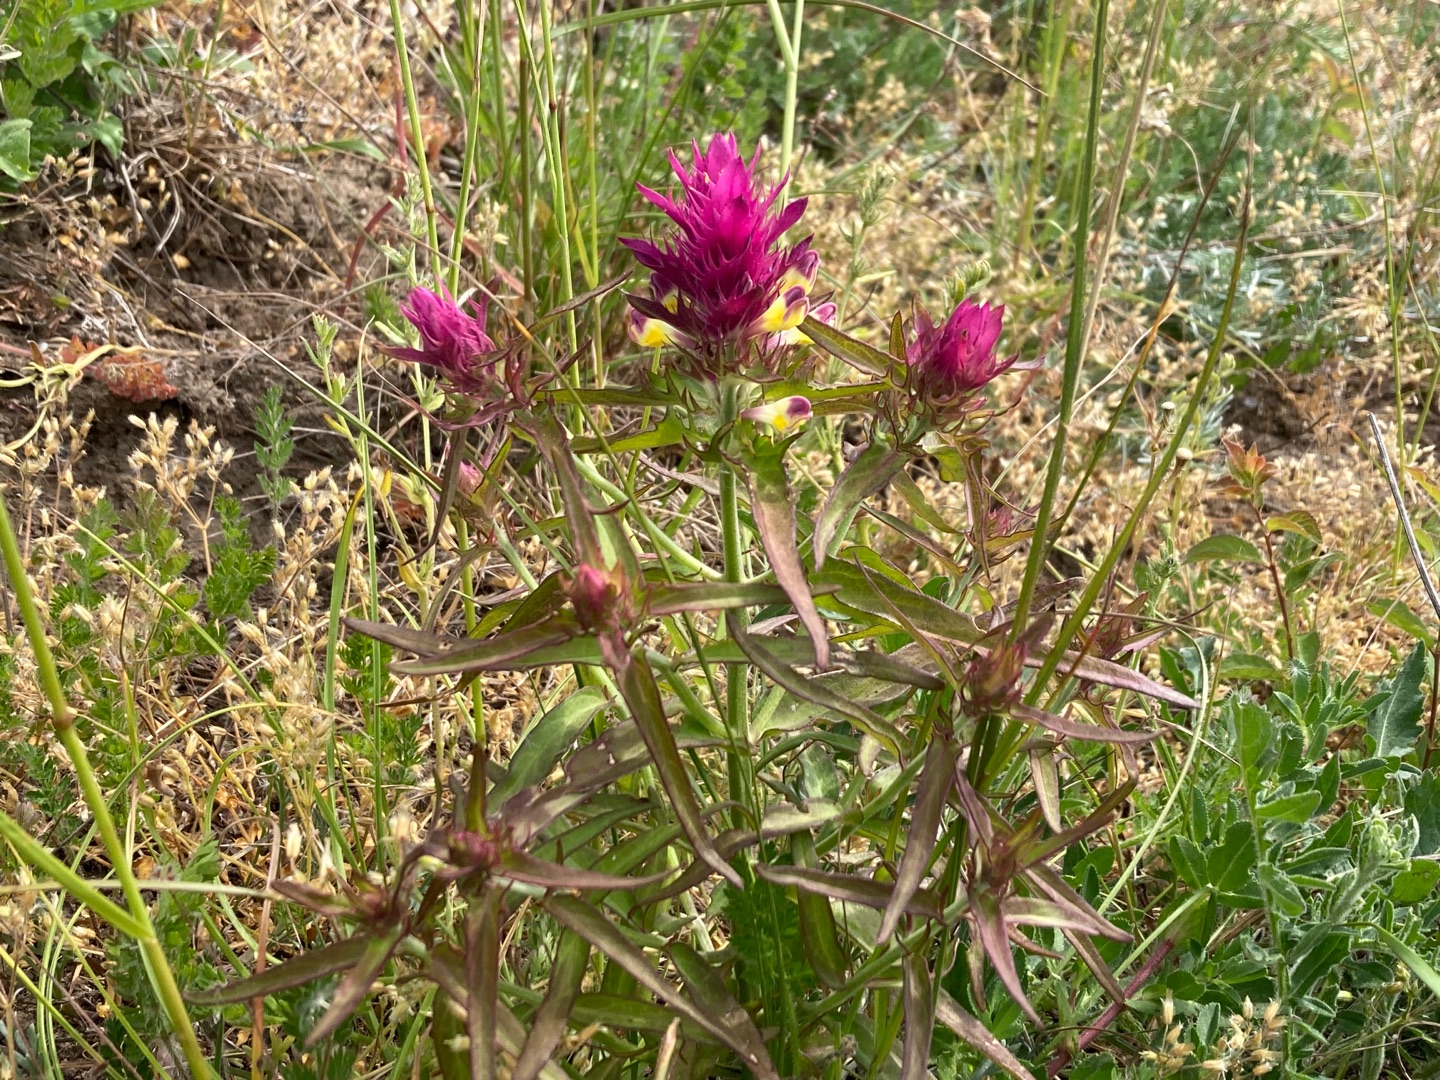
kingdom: Plantae
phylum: Tracheophyta
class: Magnoliopsida
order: Lamiales
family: Orobanchaceae
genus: Melampyrum
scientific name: Melampyrum arvense
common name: Ager-kohvede
